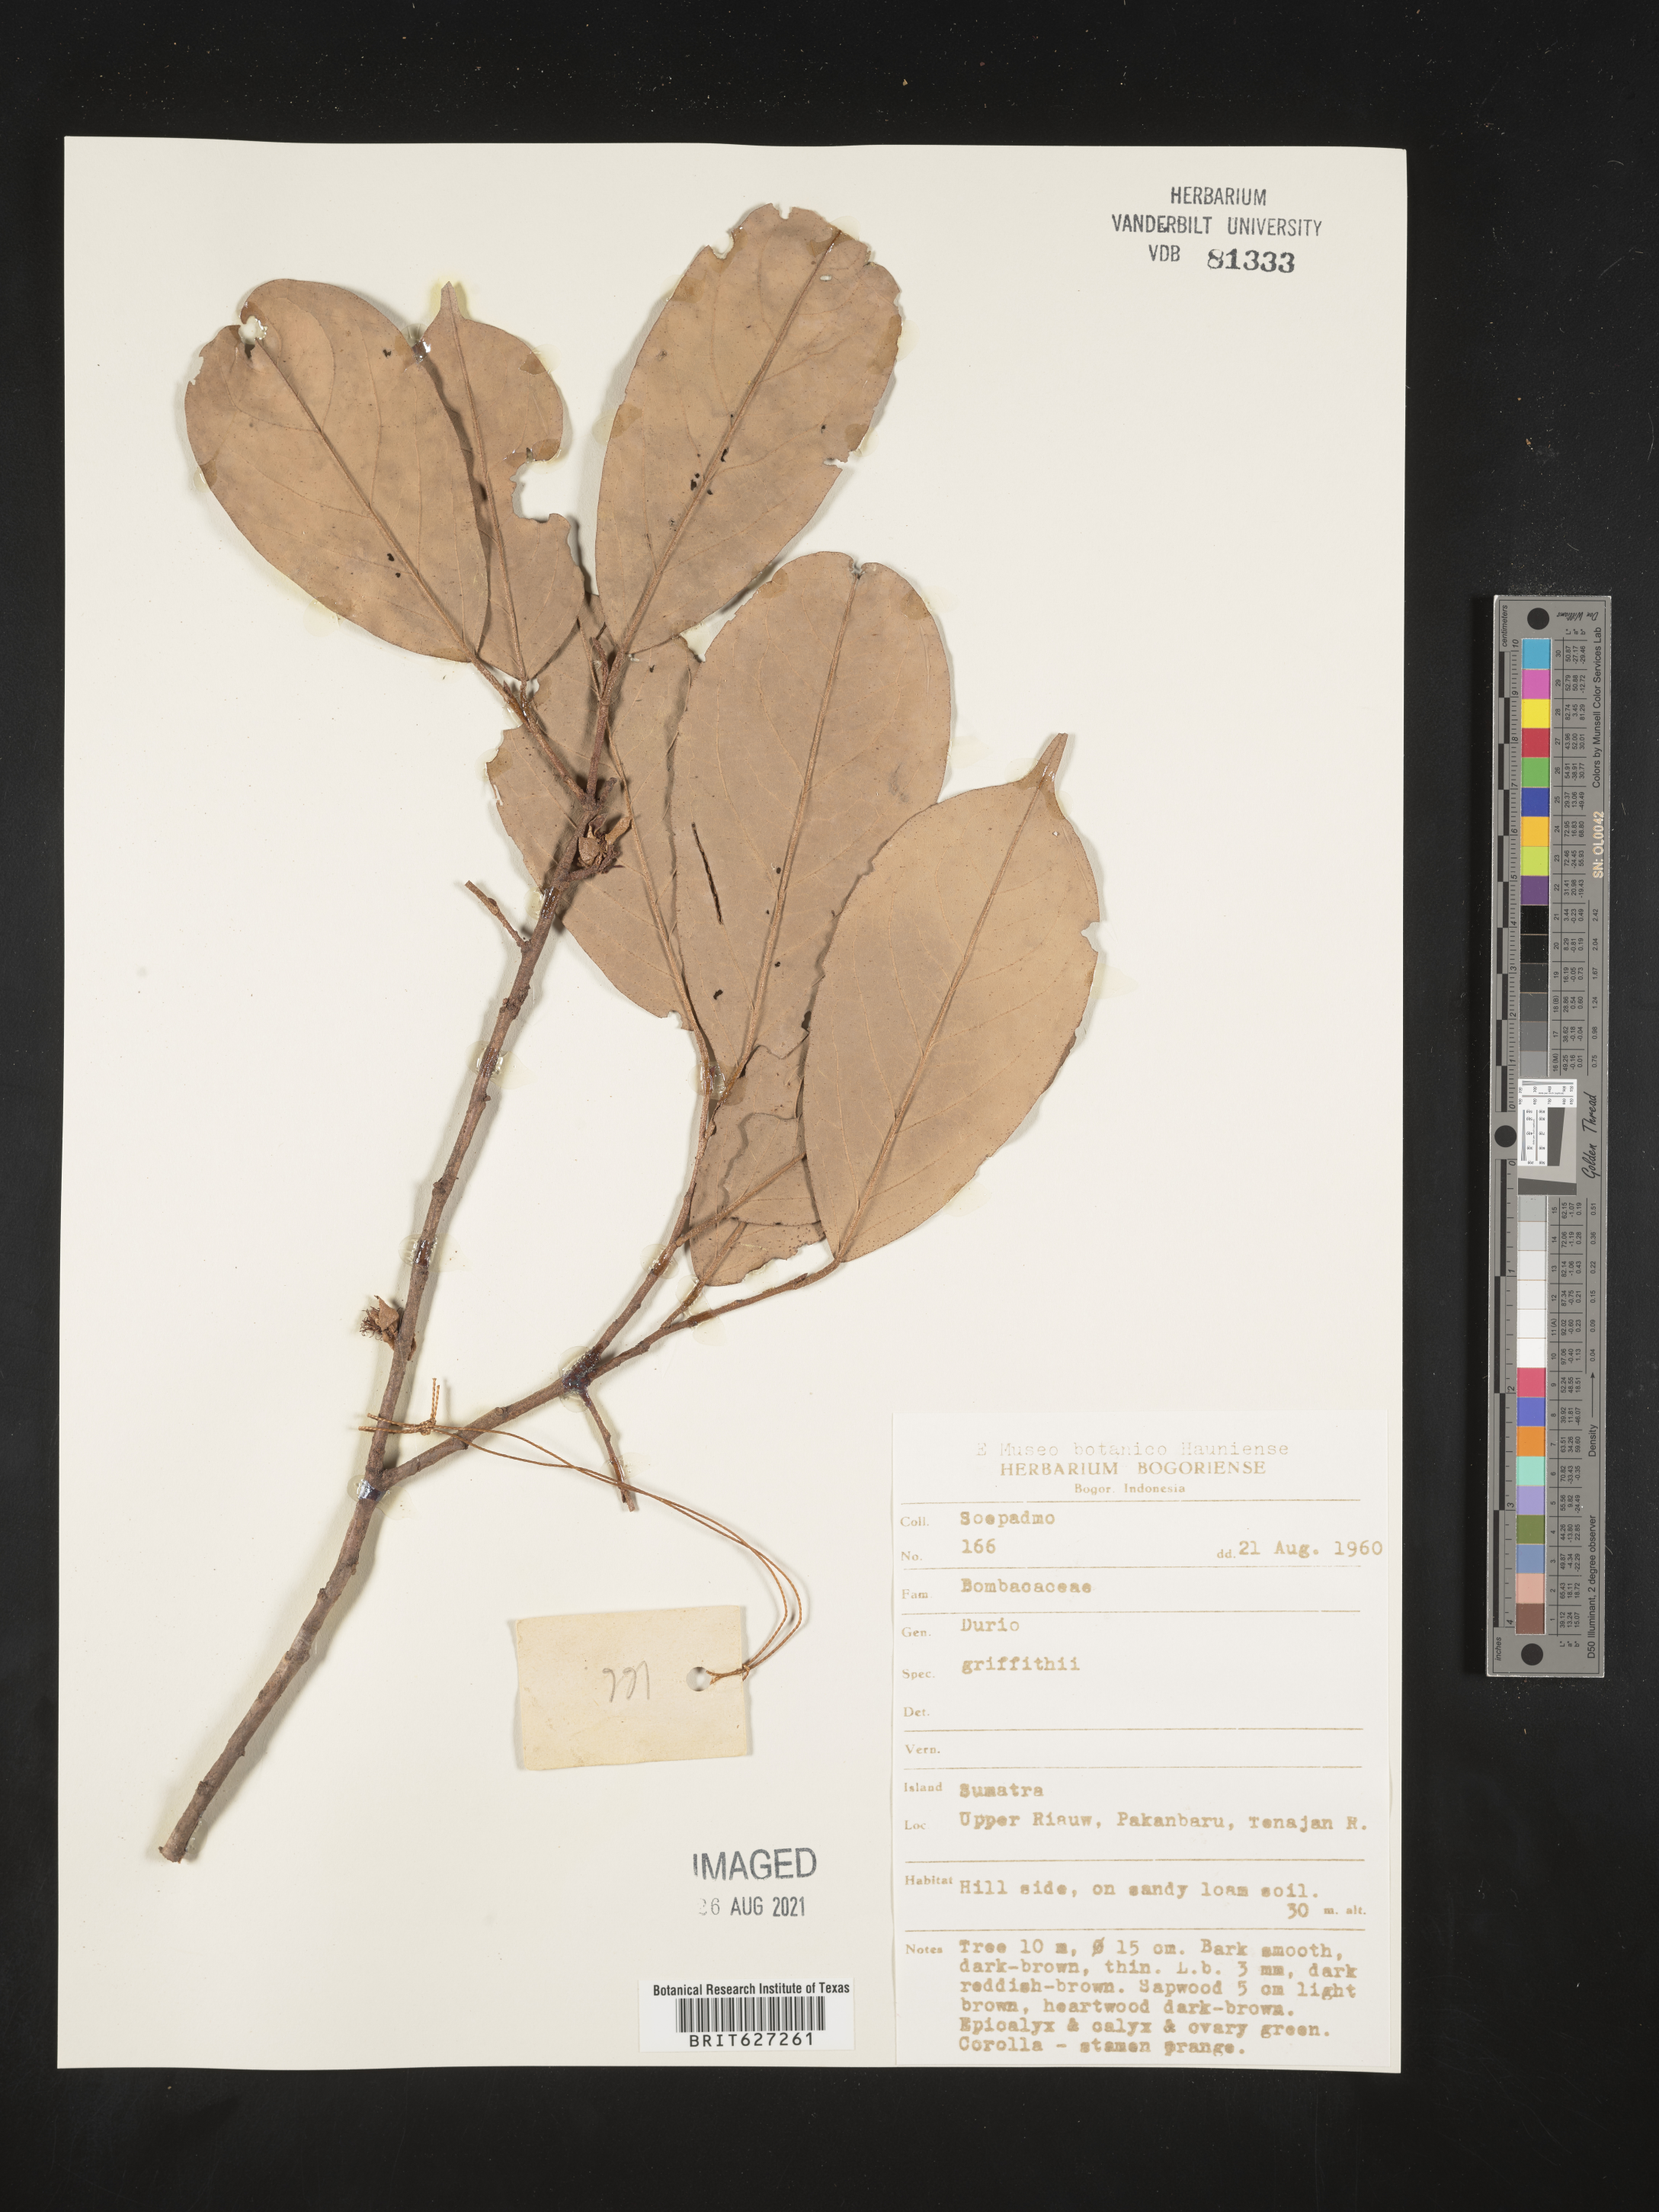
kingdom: Plantae
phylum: Tracheophyta
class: Magnoliopsida
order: Malvales
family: Malvaceae
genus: Durio
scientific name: Durio
